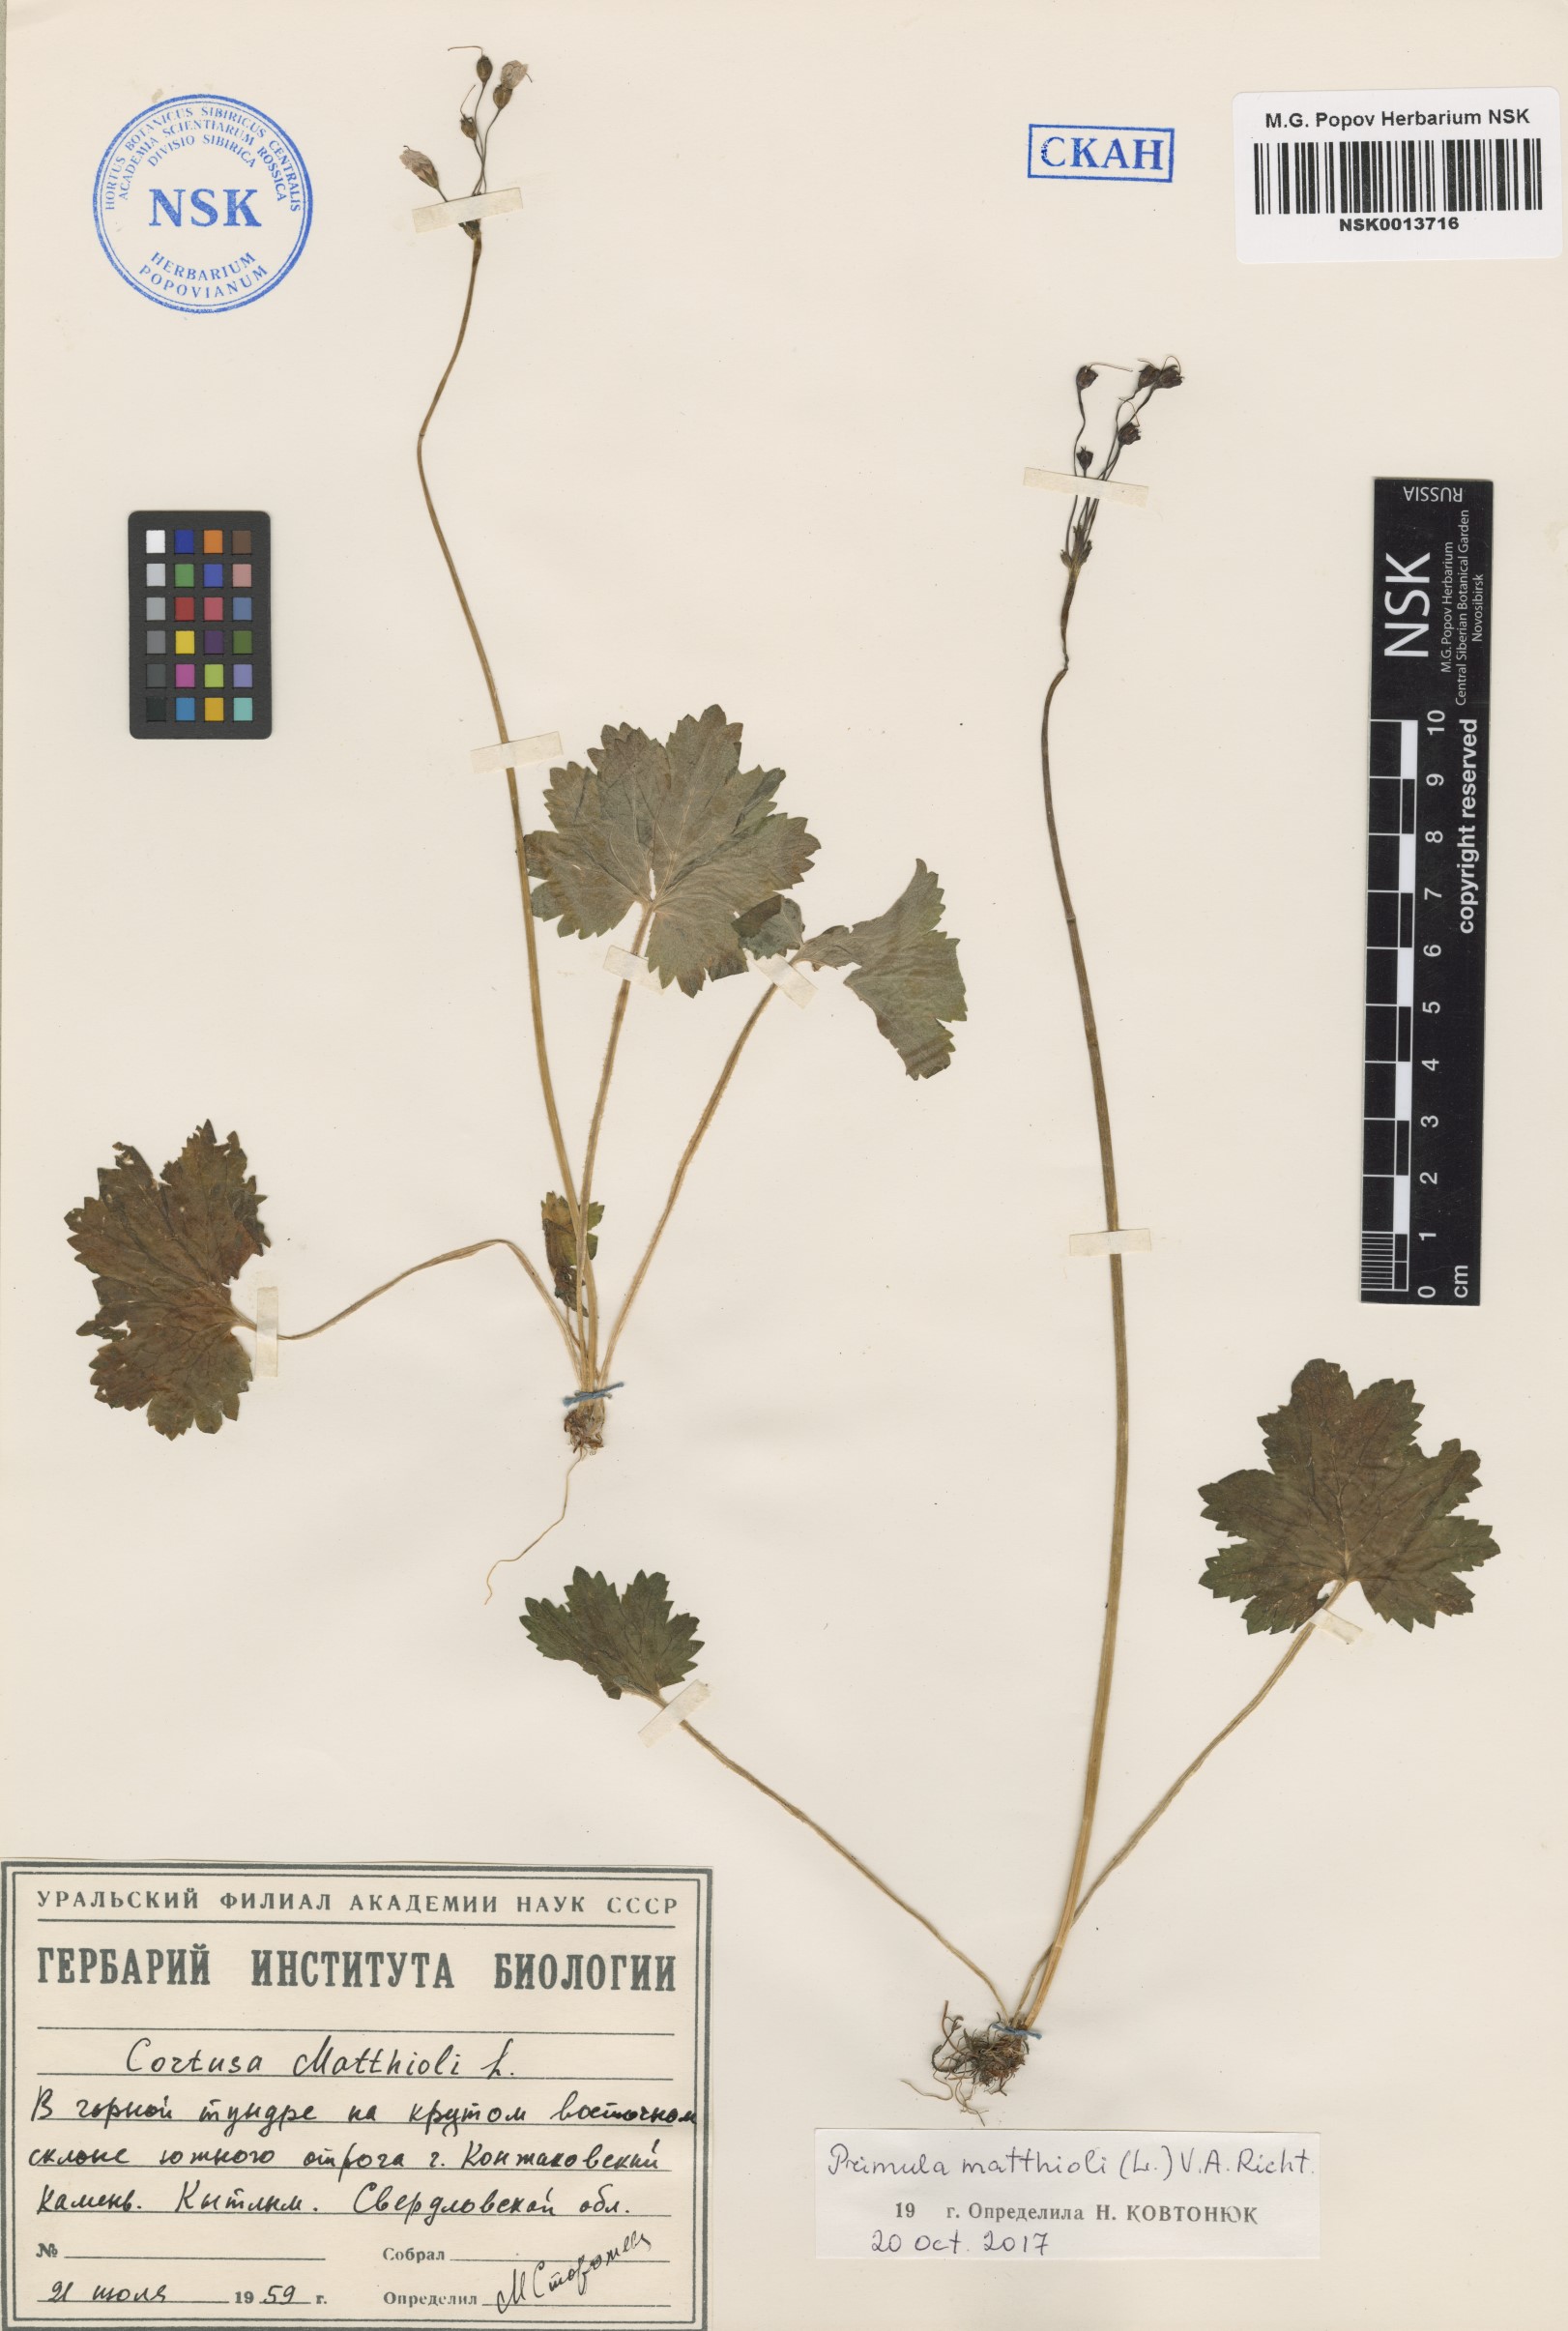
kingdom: Plantae
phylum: Tracheophyta
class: Magnoliopsida
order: Ericales
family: Primulaceae
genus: Primula
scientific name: Primula matthioli
